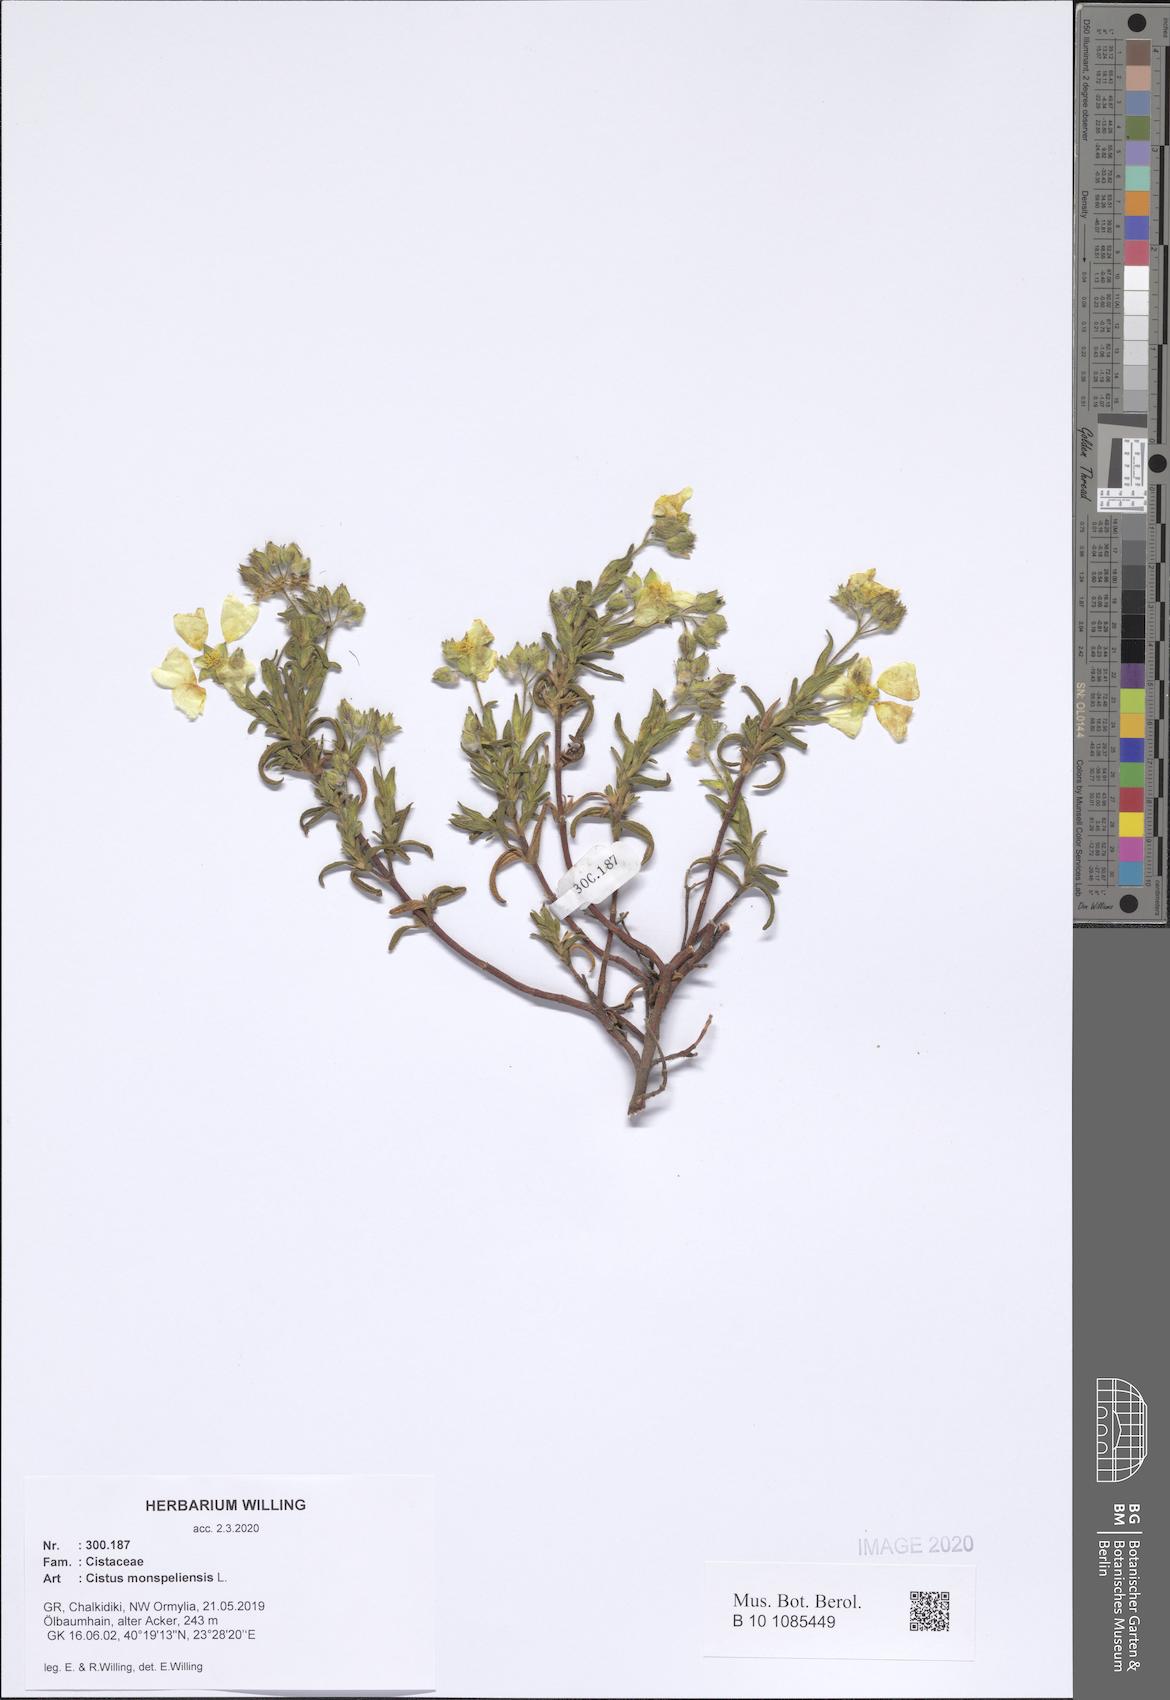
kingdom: Plantae
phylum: Tracheophyta
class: Magnoliopsida
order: Malvales
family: Cistaceae
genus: Cistus
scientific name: Cistus monspeliensis
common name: Montpelier cistus
